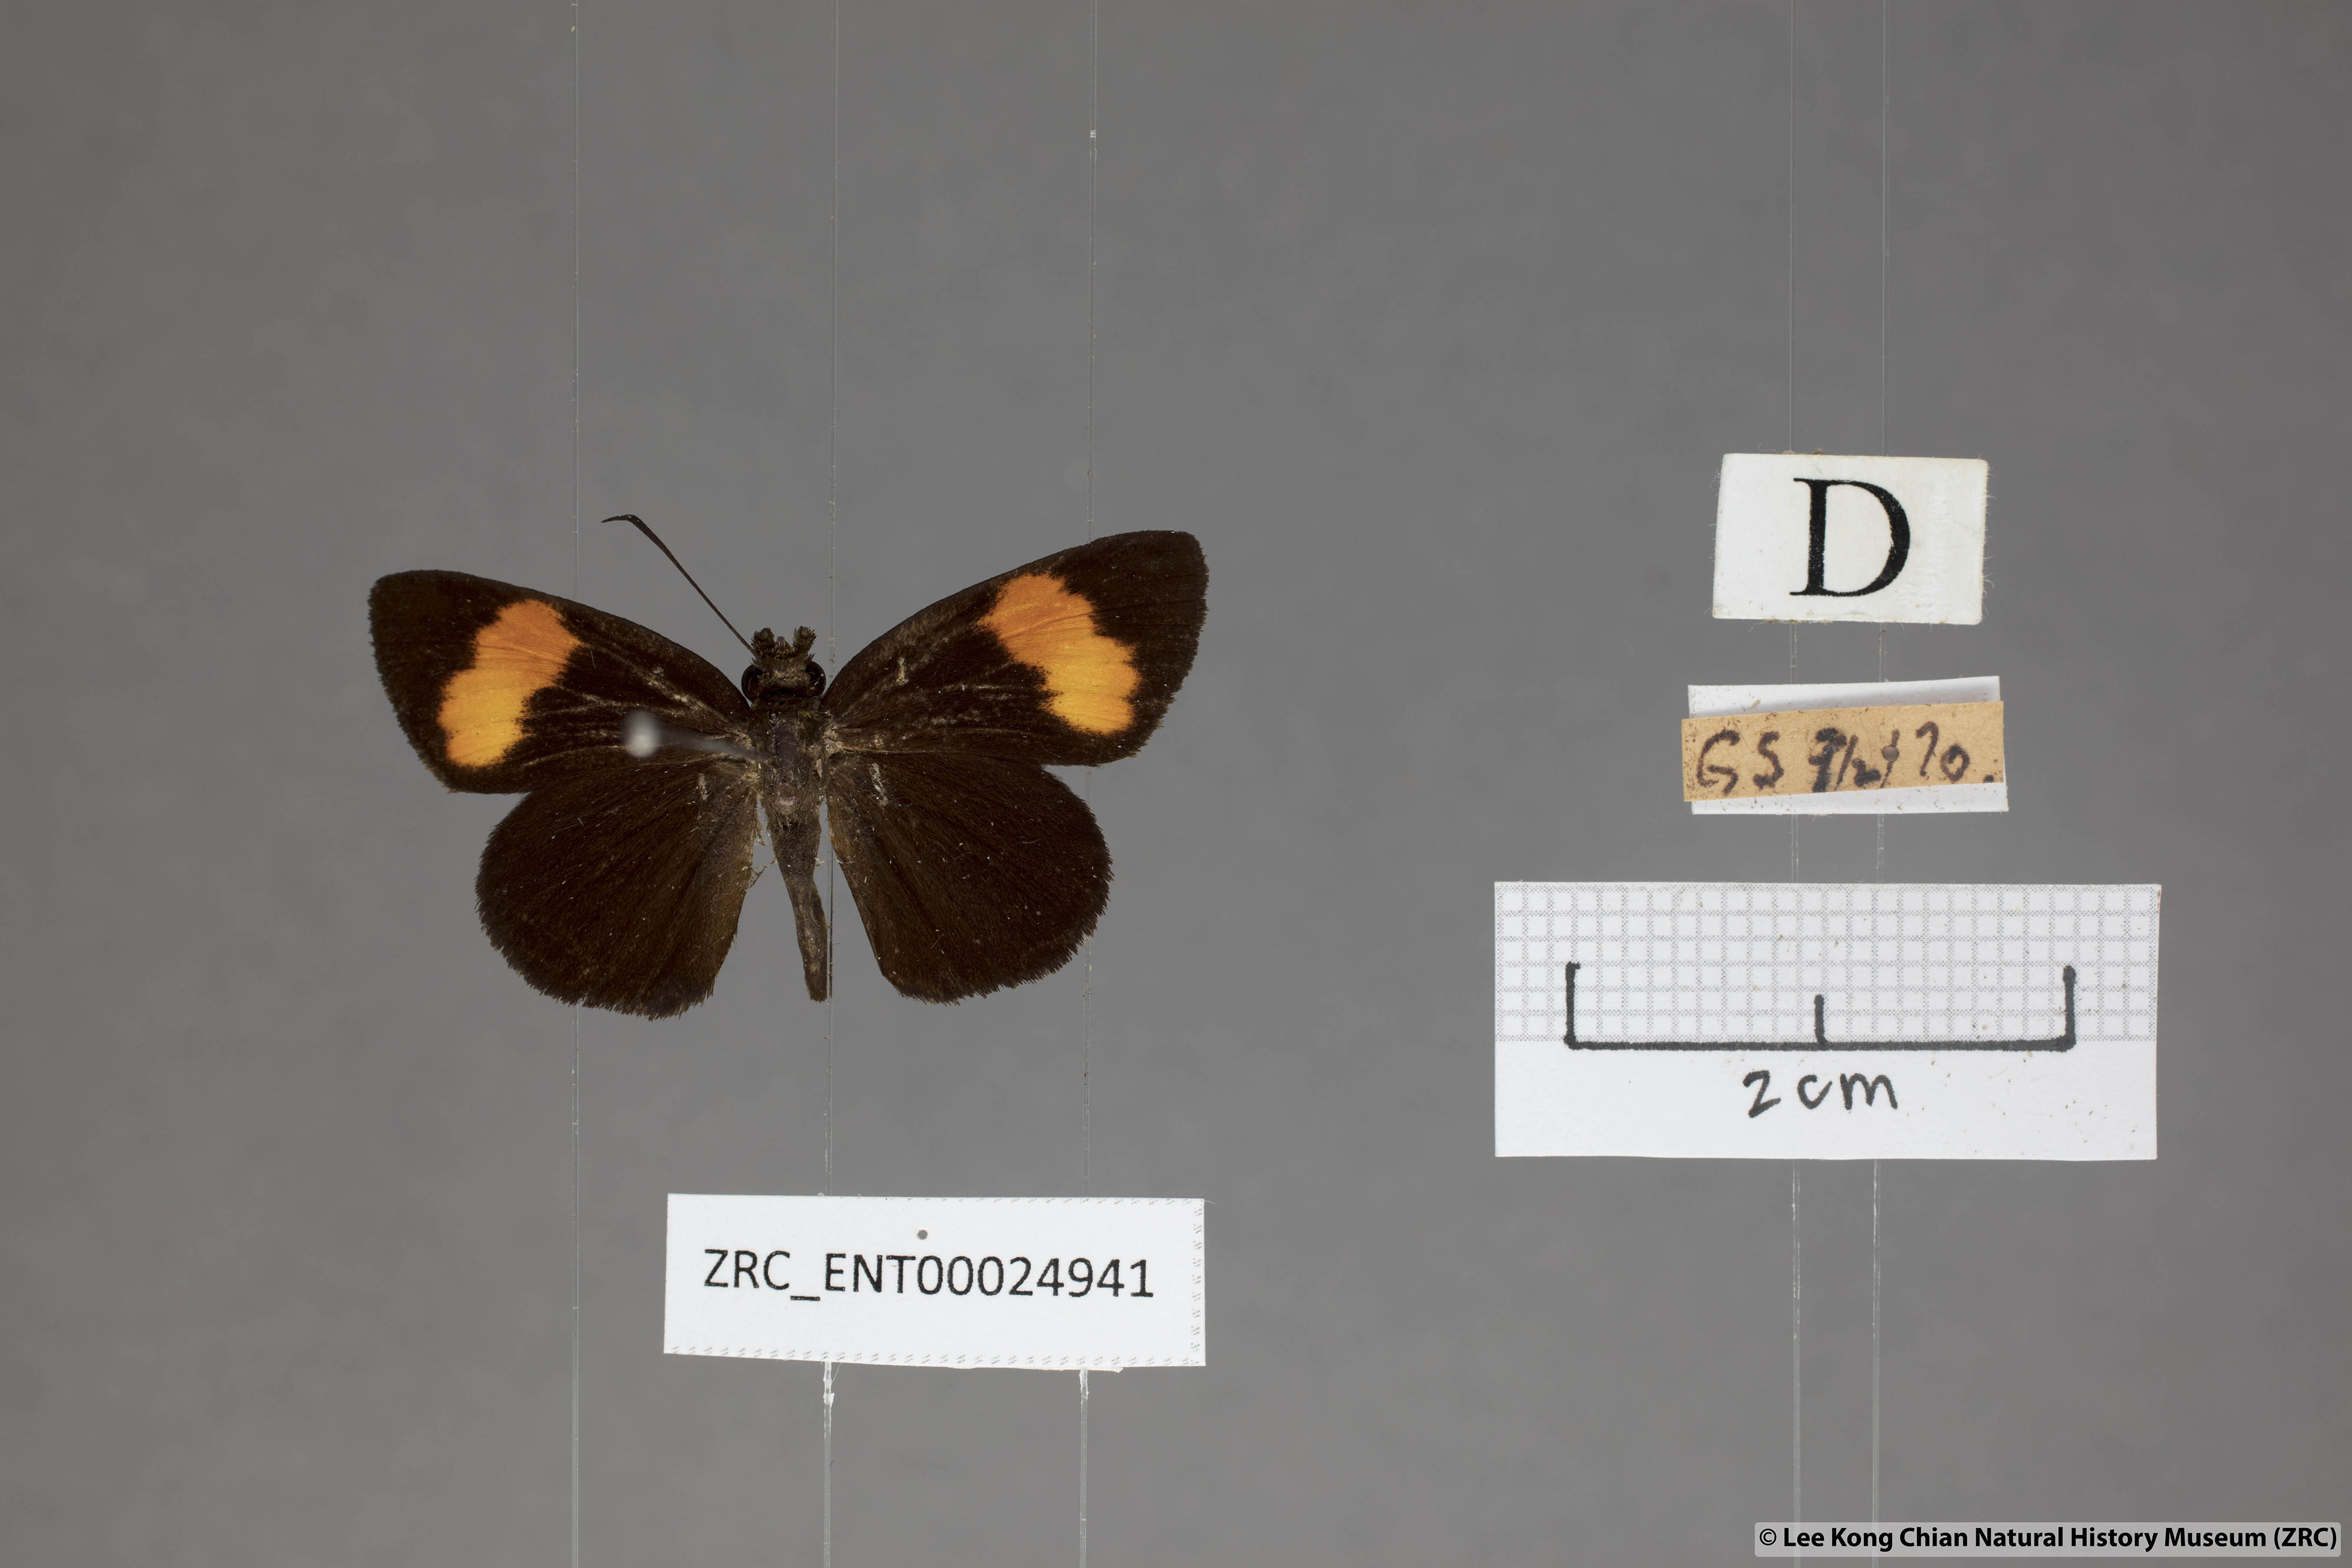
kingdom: Animalia
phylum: Arthropoda
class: Insecta
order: Lepidoptera
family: Hesperiidae
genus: Koruthaialos
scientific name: Koruthaialos sindu
